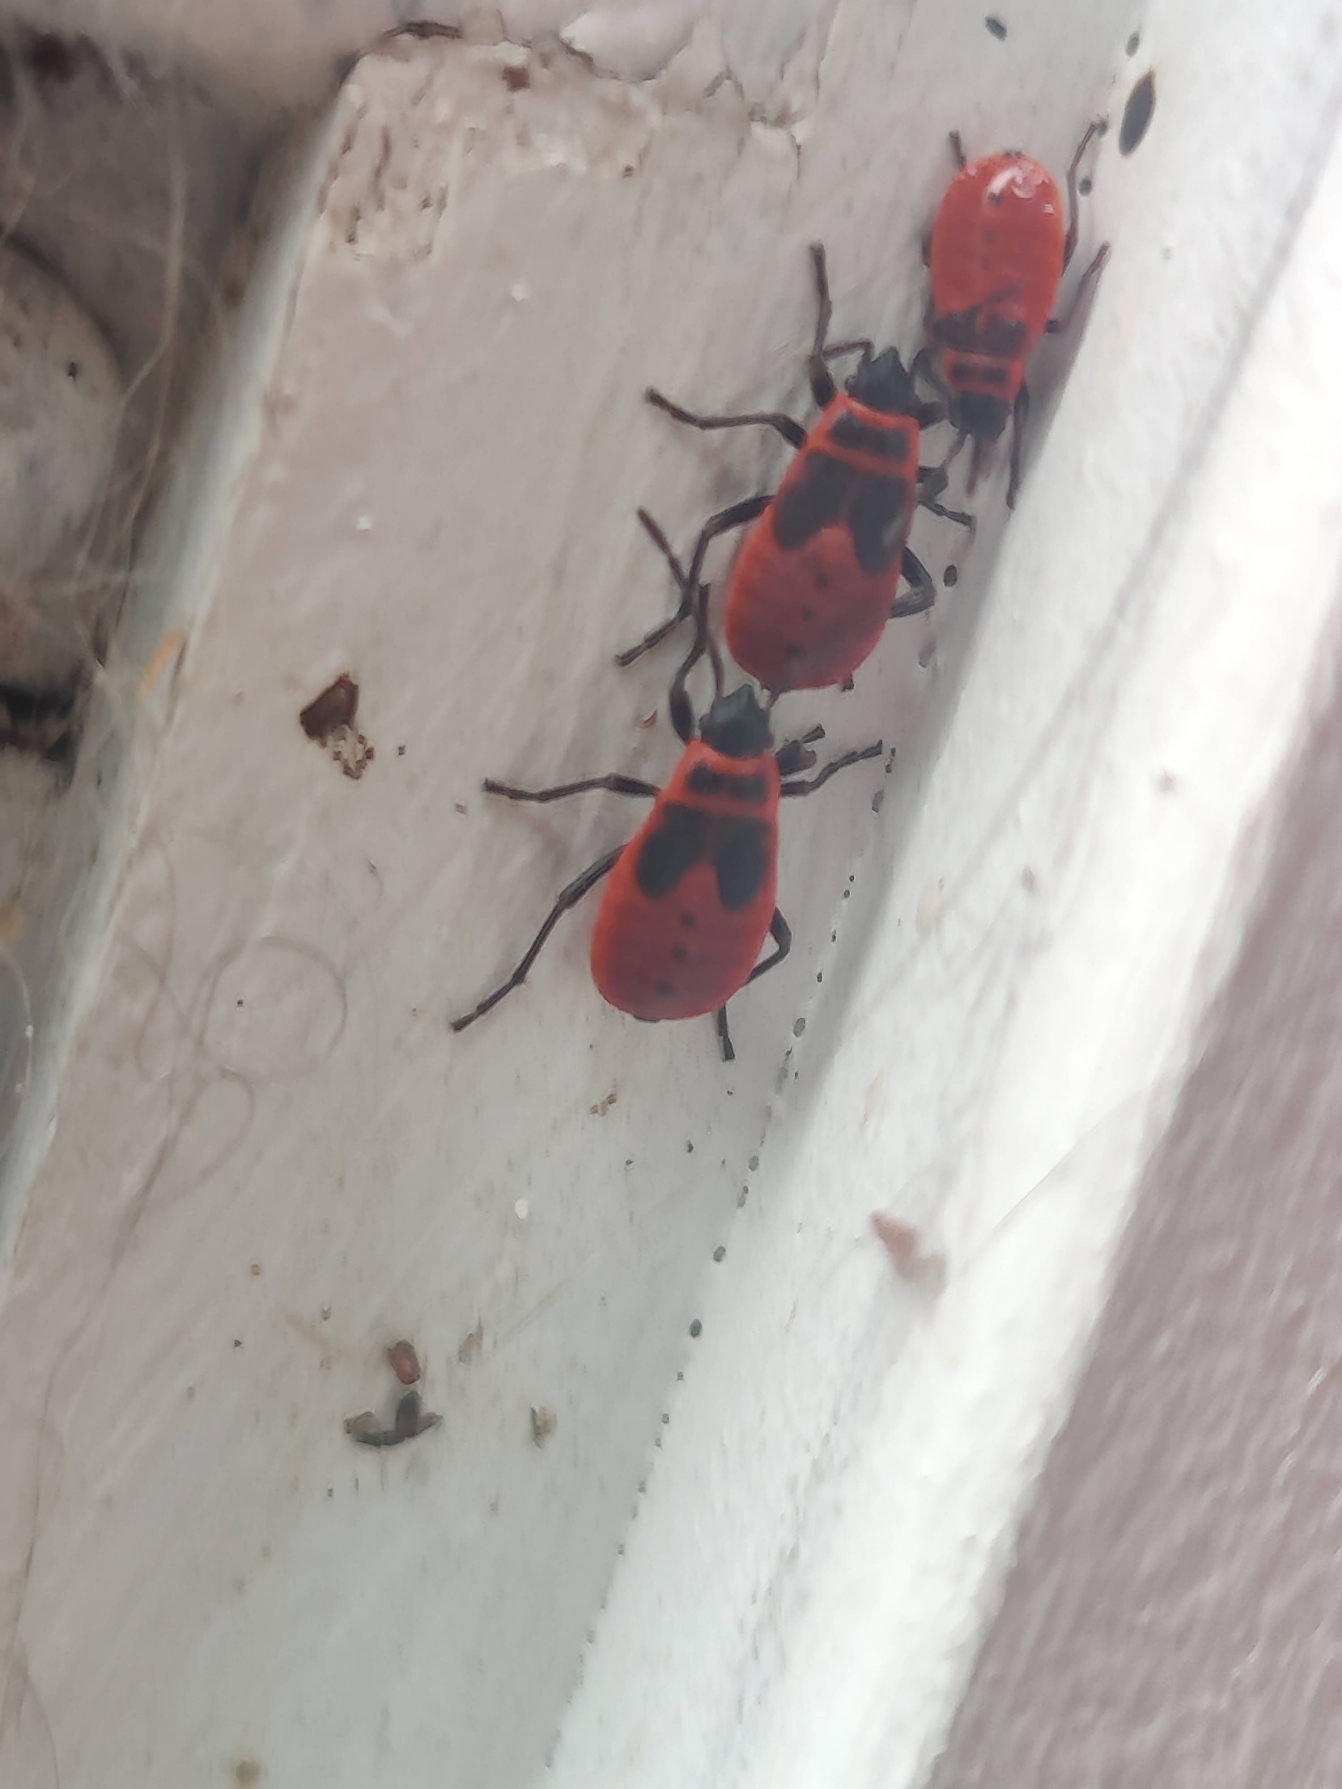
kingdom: Animalia
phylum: Arthropoda
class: Insecta
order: Hemiptera
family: Pyrrhocoridae
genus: Pyrrhocoris
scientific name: Pyrrhocoris apterus
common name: Ildtæge
